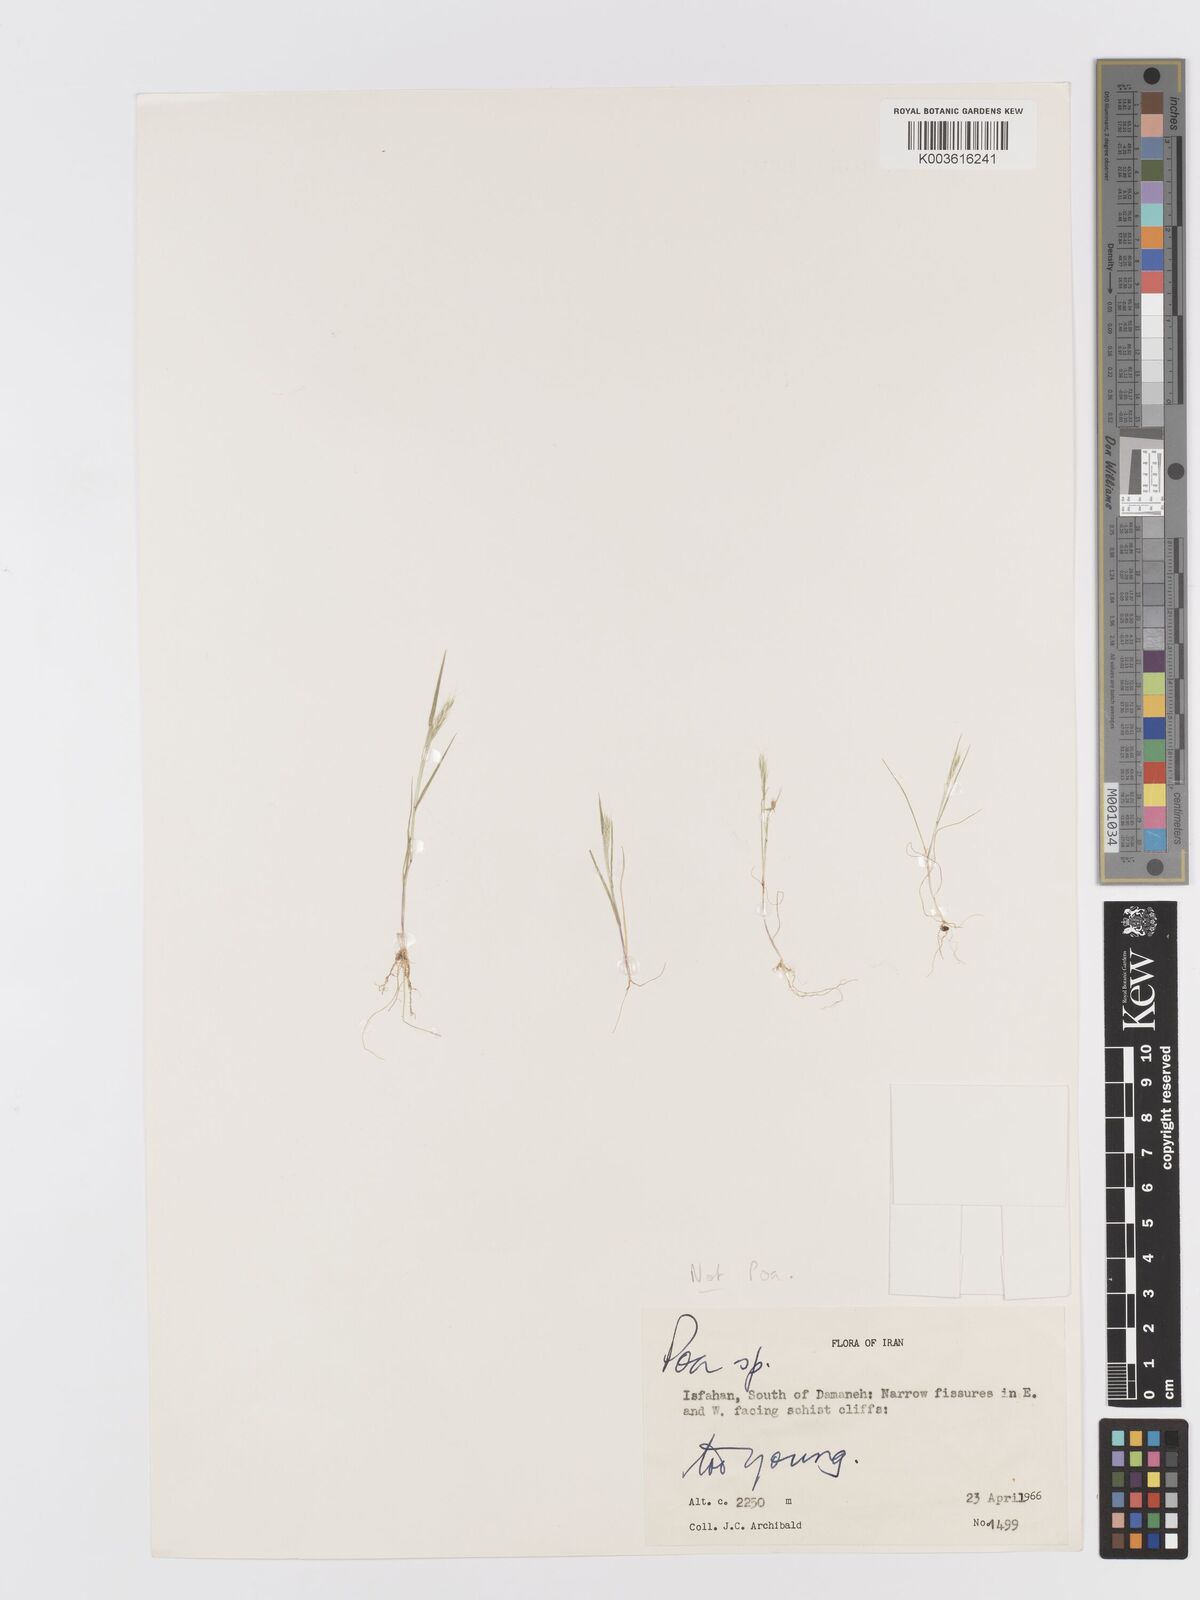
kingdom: Plantae
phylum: Tracheophyta
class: Liliopsida
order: Poales
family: Poaceae
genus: Trisetaria
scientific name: Trisetaria loeflingiana
